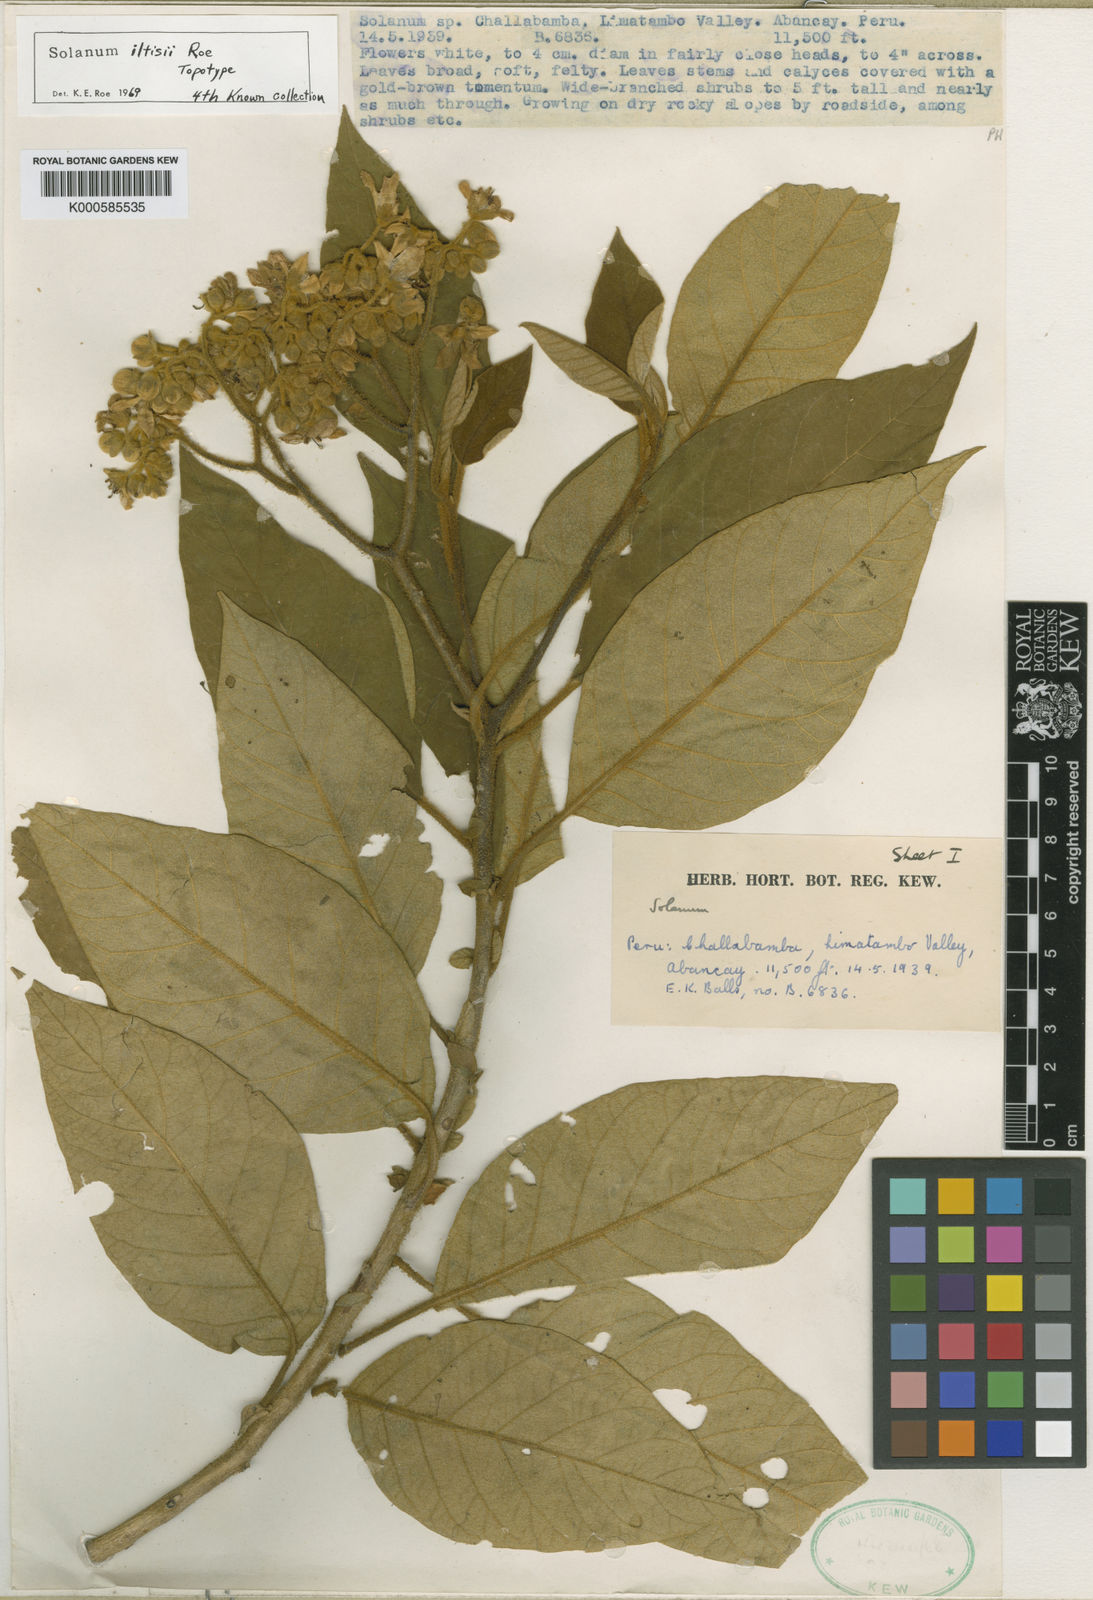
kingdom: Plantae
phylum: Tracheophyta
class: Magnoliopsida
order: Solanales
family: Solanaceae
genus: Solanum
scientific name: Solanum iltisii
